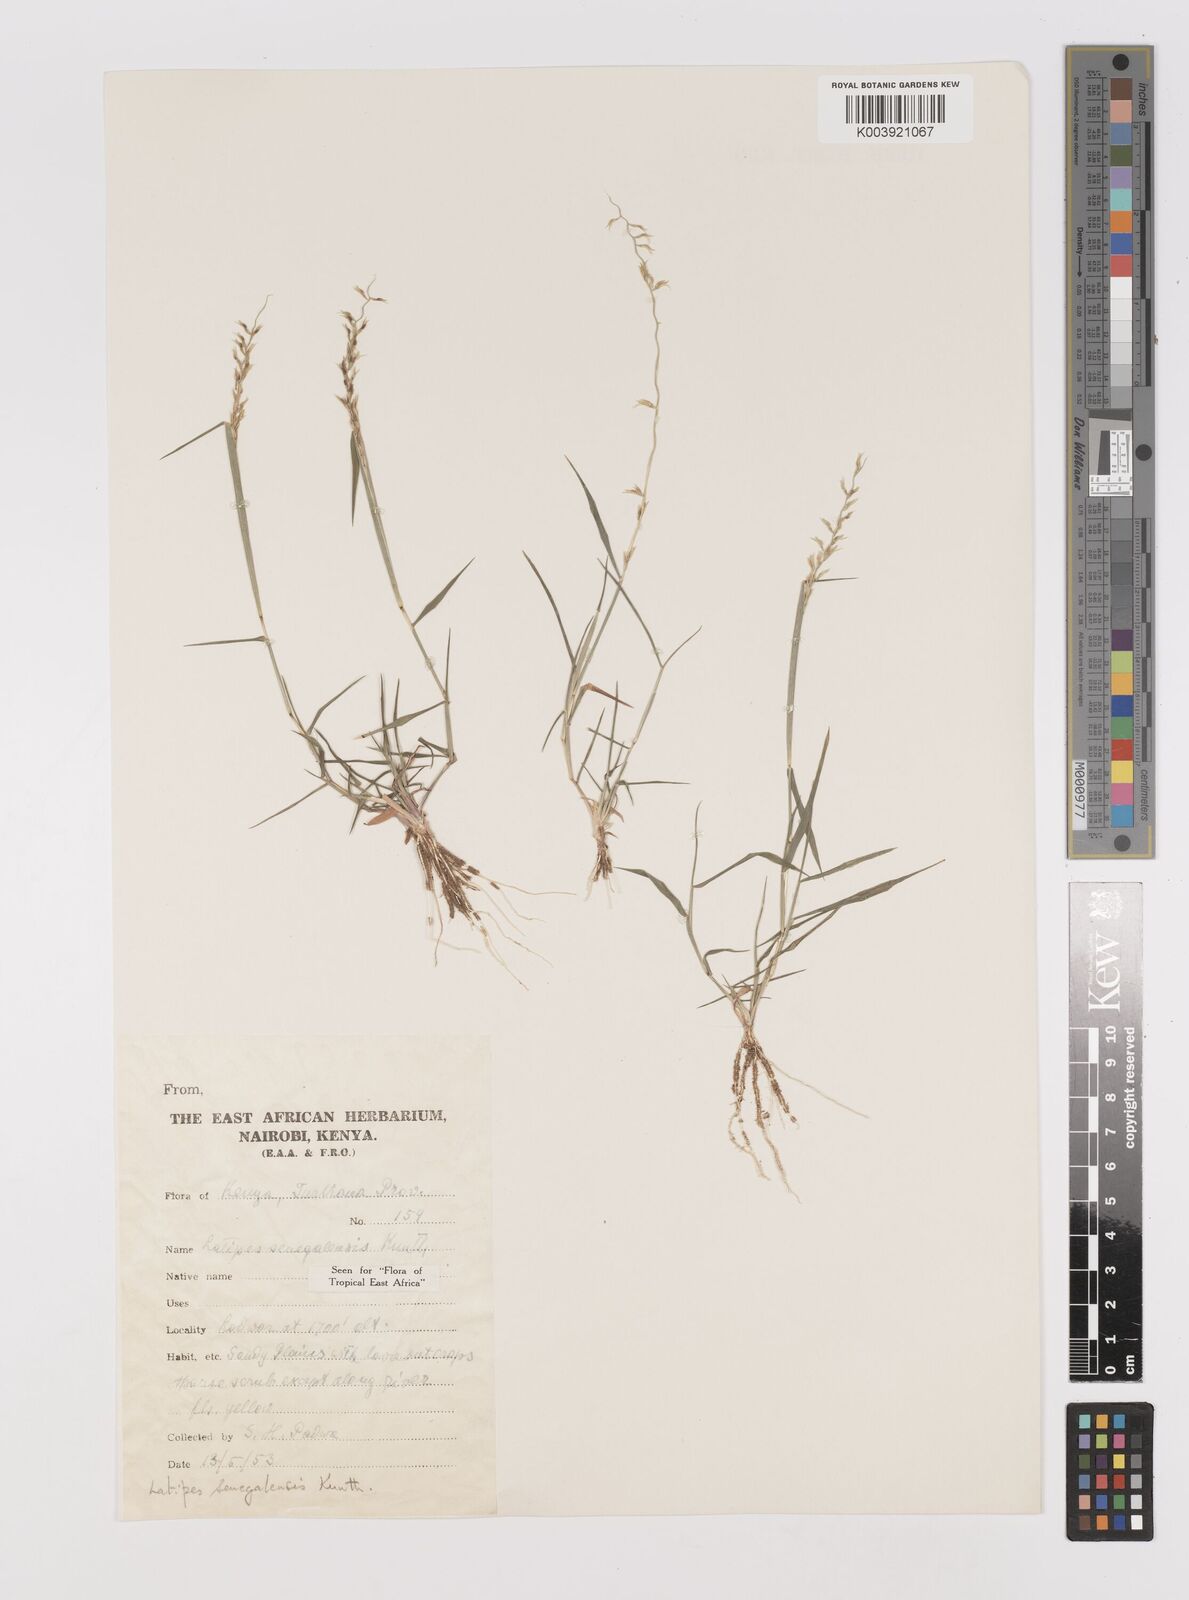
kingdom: Plantae
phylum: Tracheophyta
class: Liliopsida
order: Poales
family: Poaceae
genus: Leptothrium
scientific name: Leptothrium senegalense
